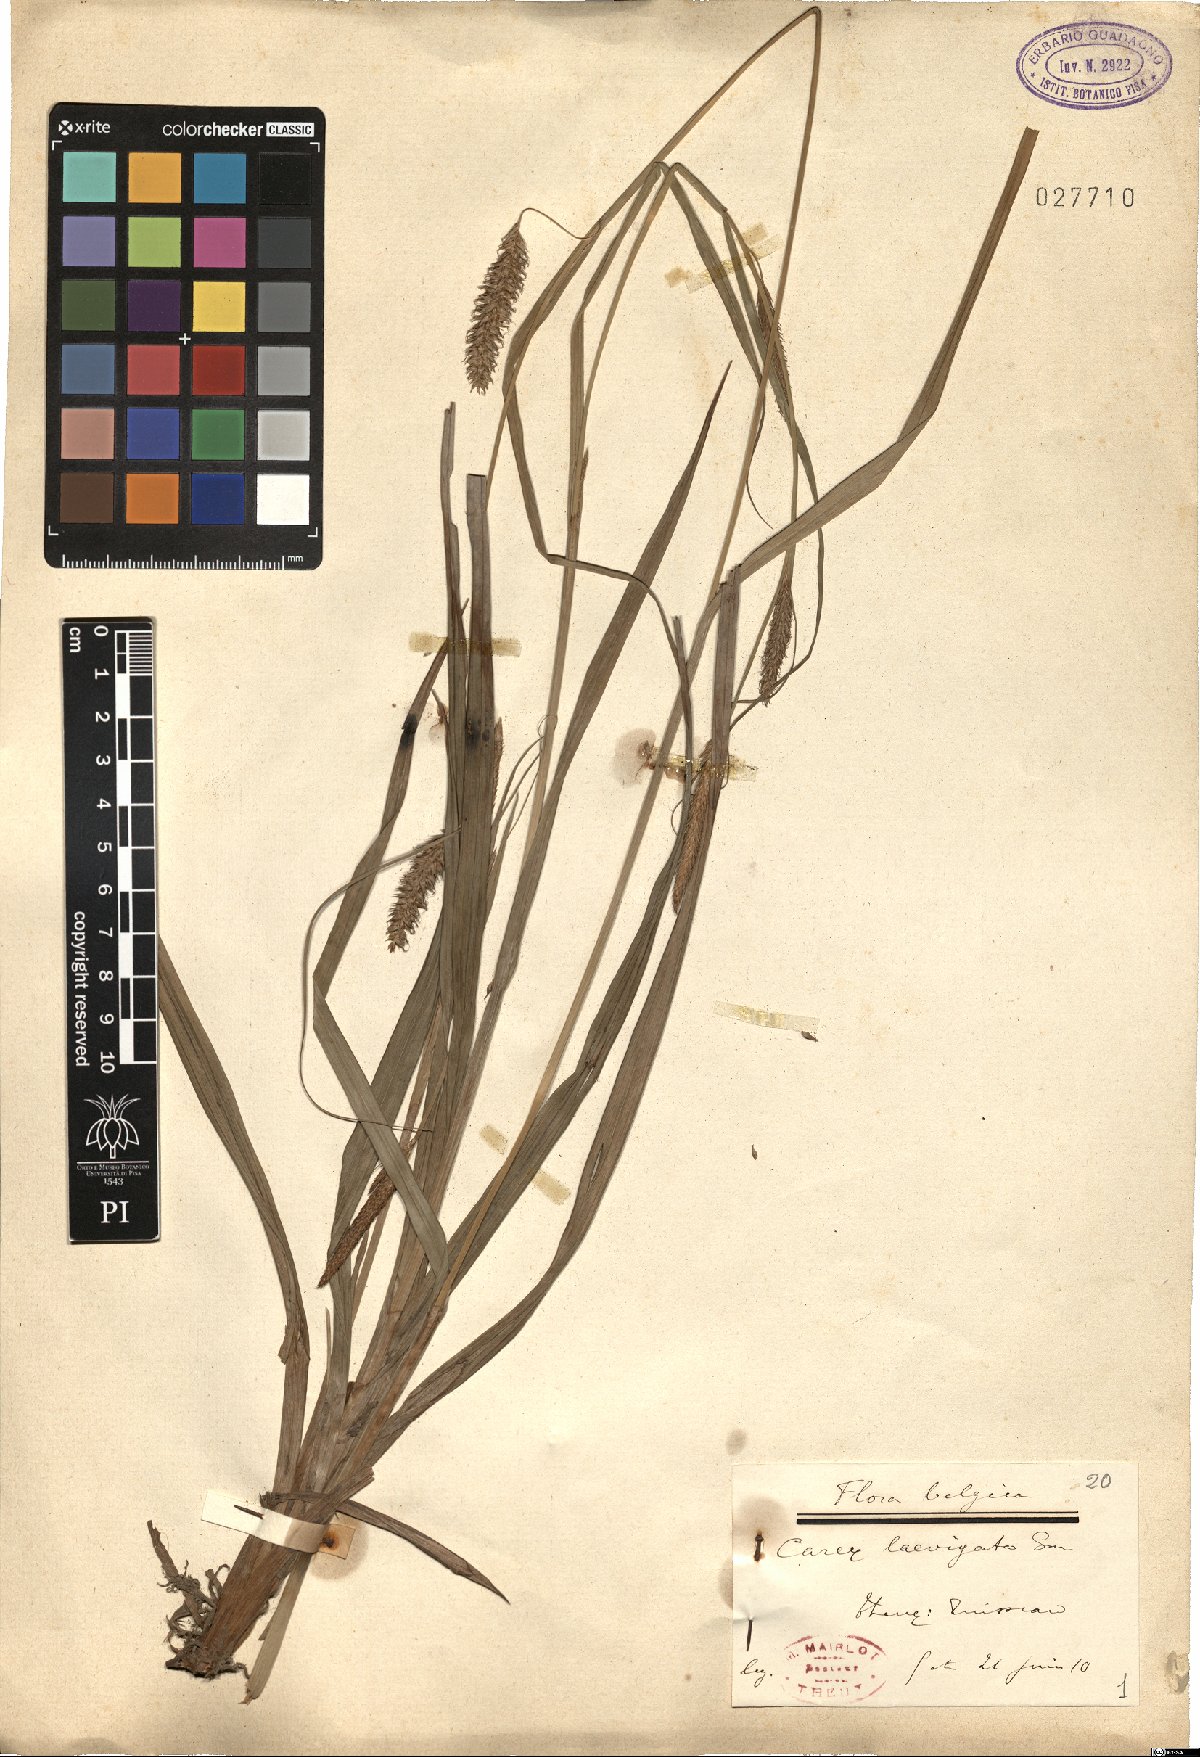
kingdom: Plantae
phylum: Tracheophyta
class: Liliopsida
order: Poales
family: Cyperaceae
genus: Carex
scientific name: Carex laevigata
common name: Smooth-stalked sedge
